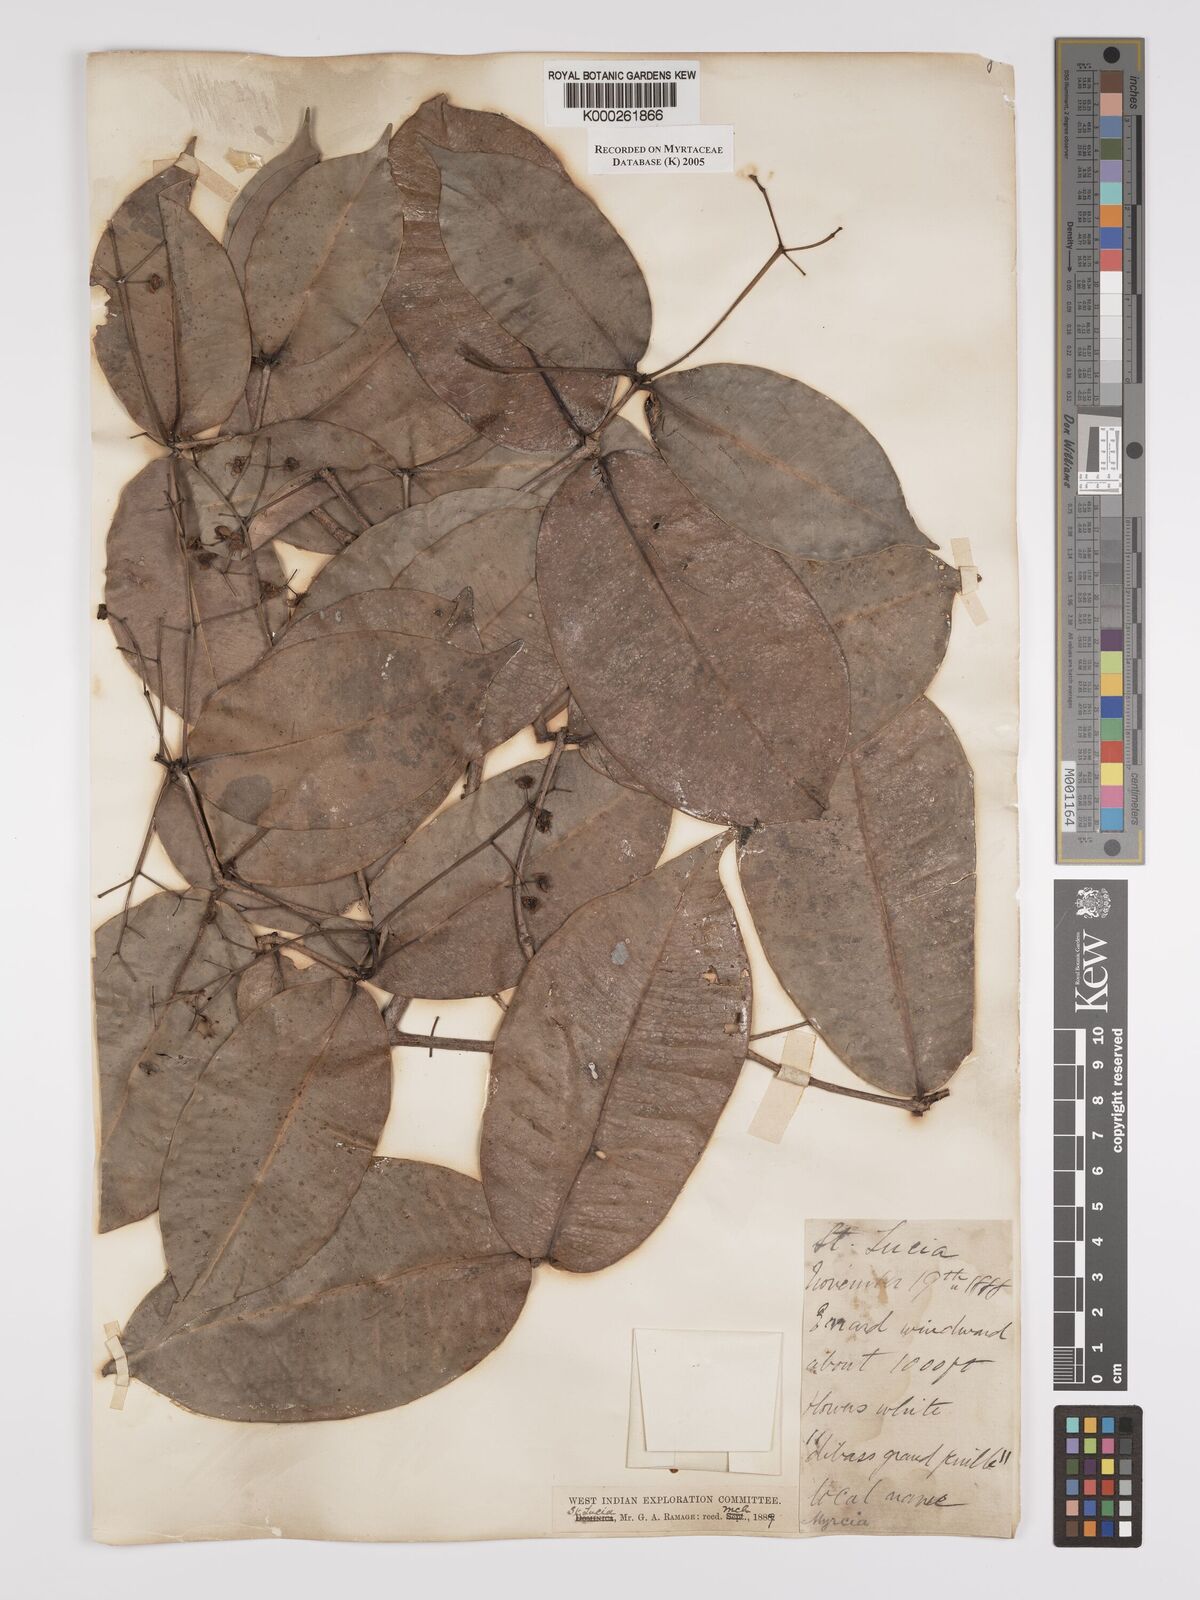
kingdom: Plantae
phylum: Tracheophyta
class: Magnoliopsida
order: Myrtales
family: Myrtaceae
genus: Myrcia
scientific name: Myrcia ramageana
